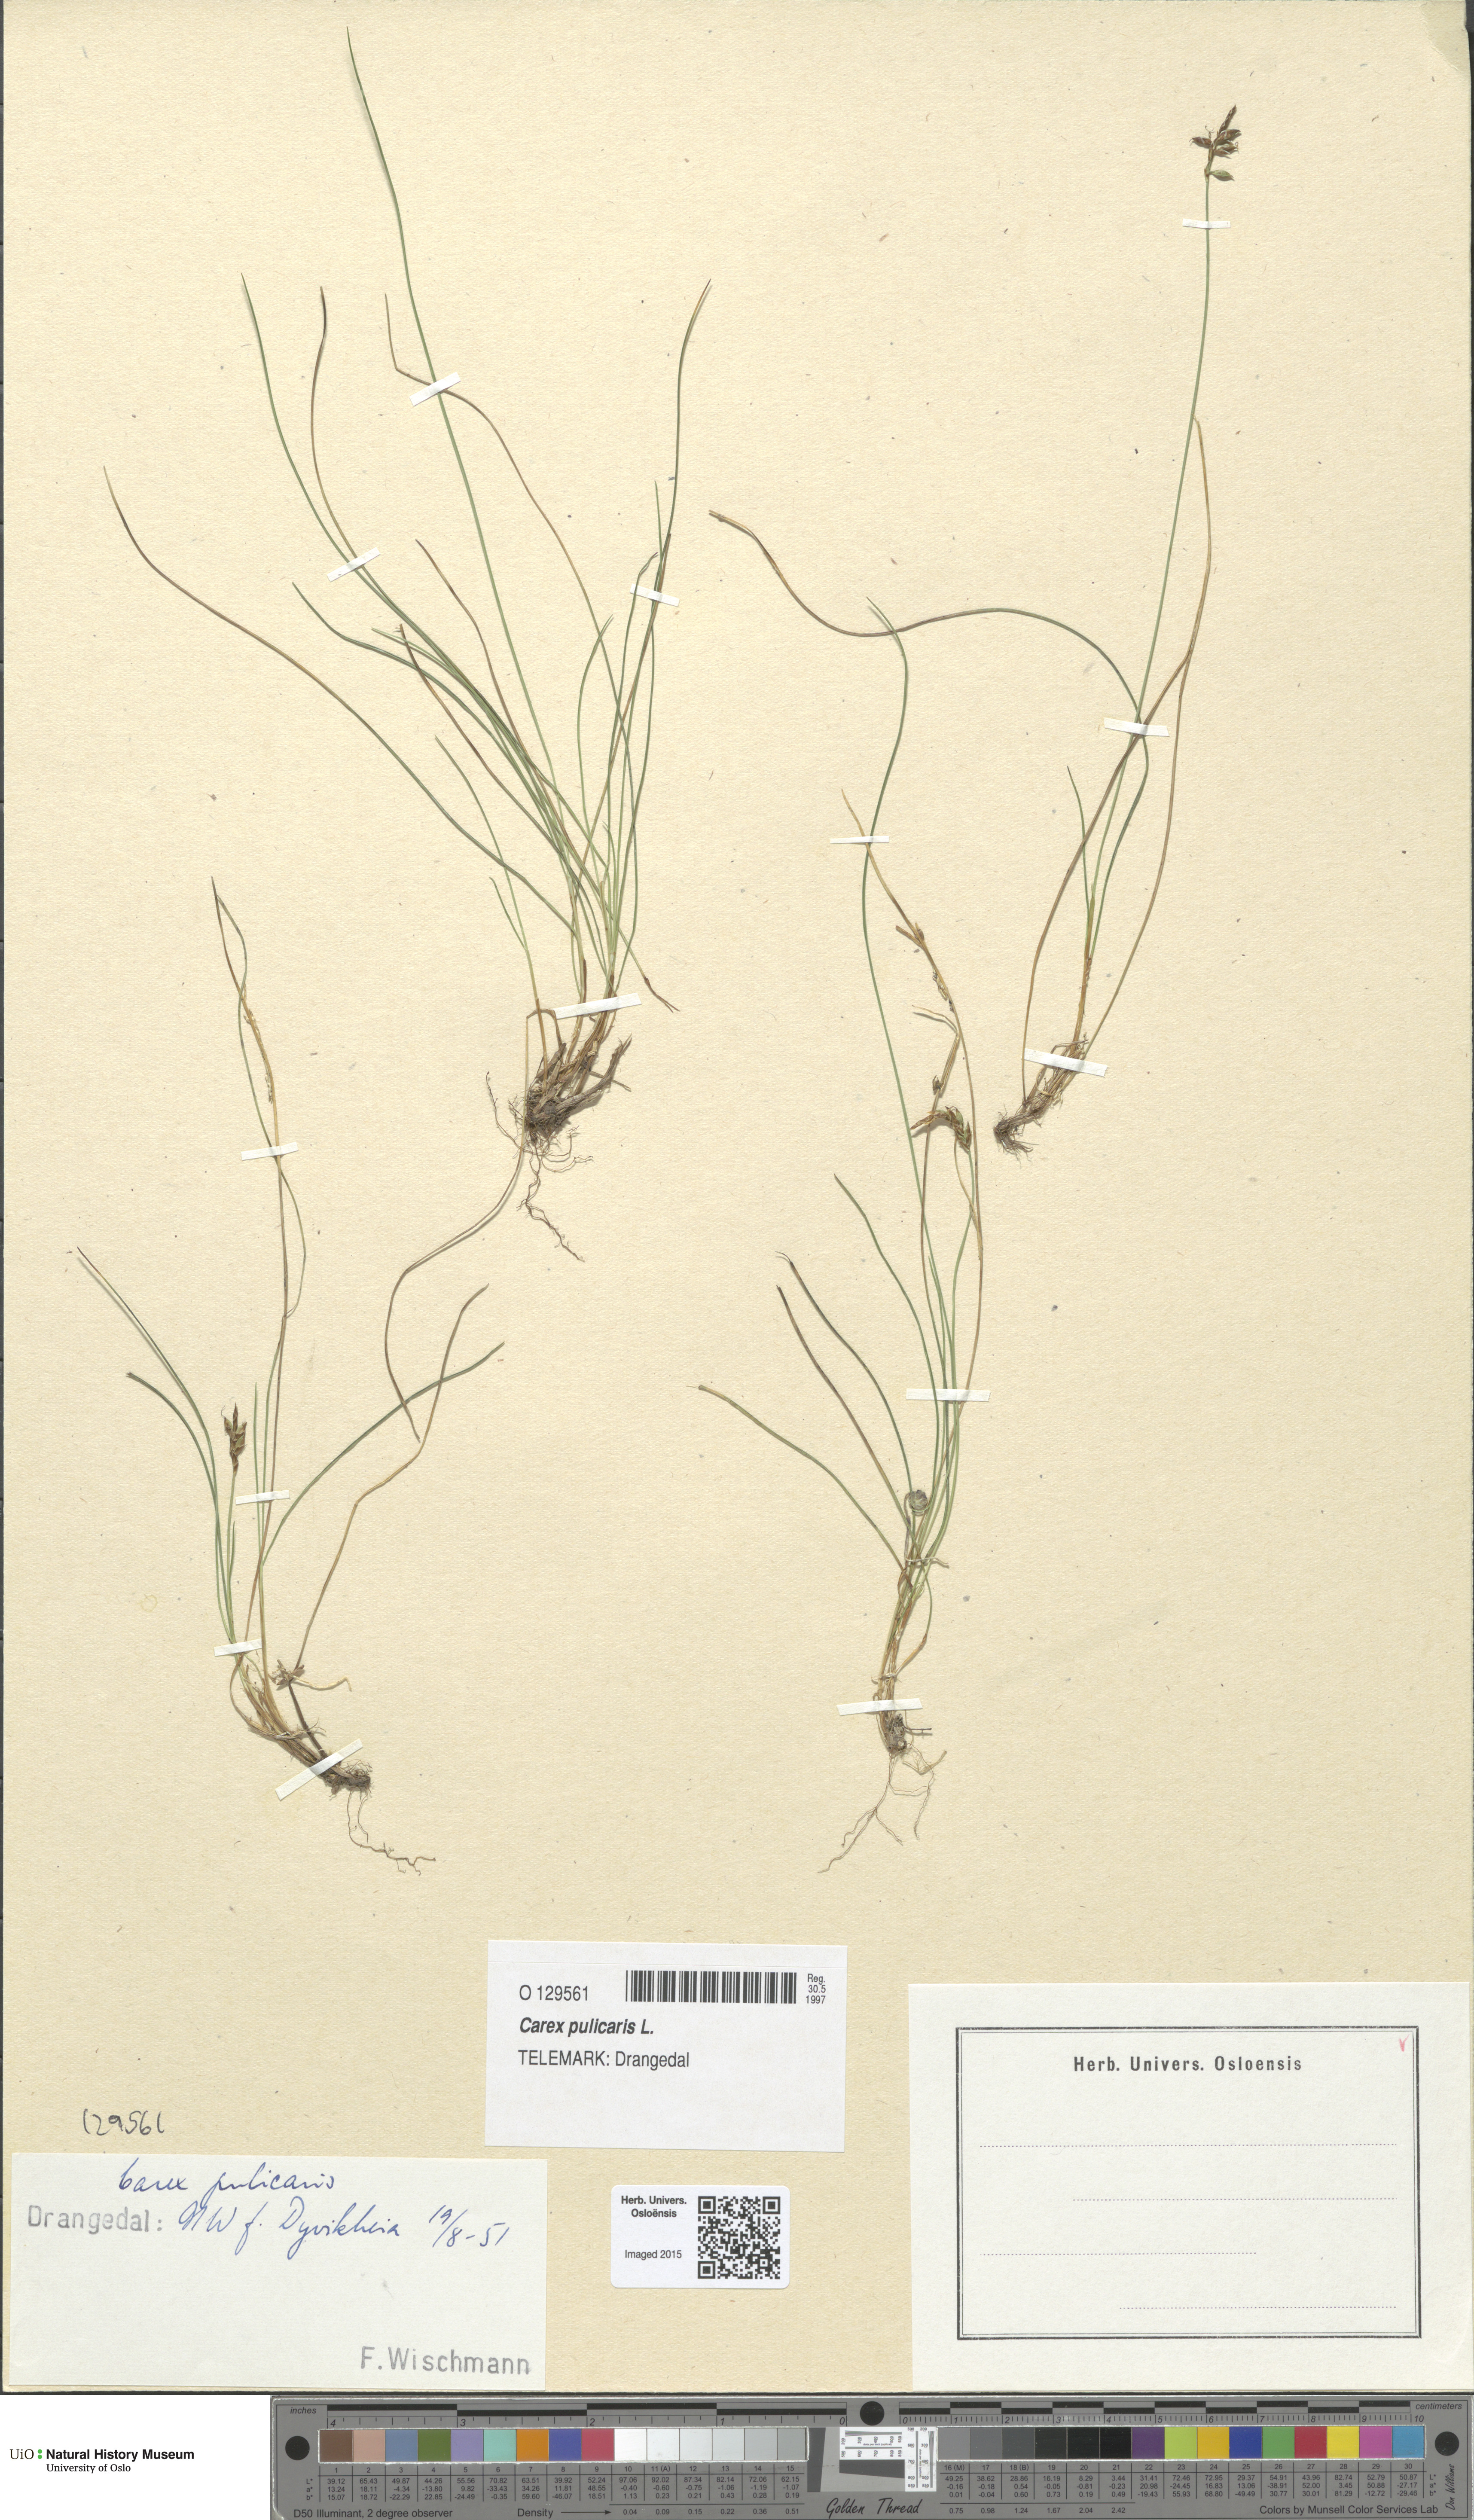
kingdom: Plantae
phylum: Tracheophyta
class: Liliopsida
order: Poales
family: Cyperaceae
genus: Carex
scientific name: Carex pulicaris
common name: Flea sedge
